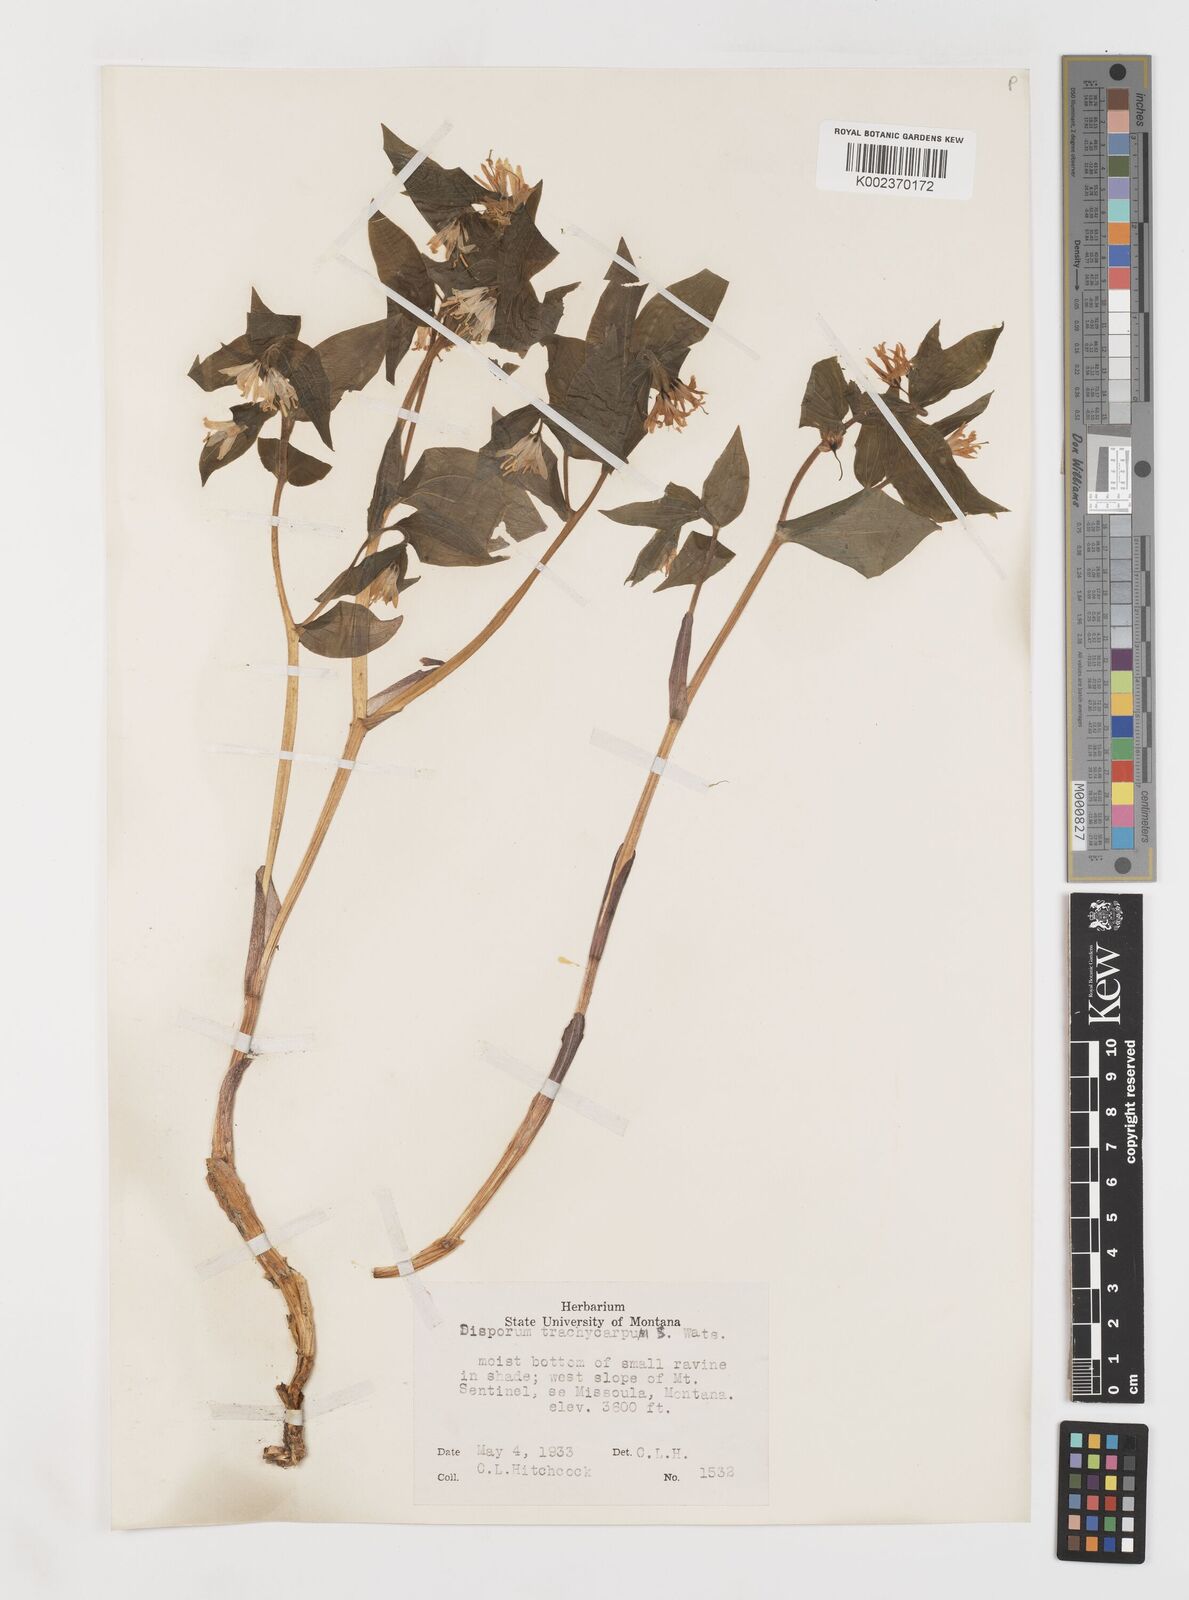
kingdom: Plantae
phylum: Tracheophyta
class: Liliopsida
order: Liliales
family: Liliaceae
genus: Prosartes
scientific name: Prosartes trachycarpa
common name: Rough-fruit fairy-bells
